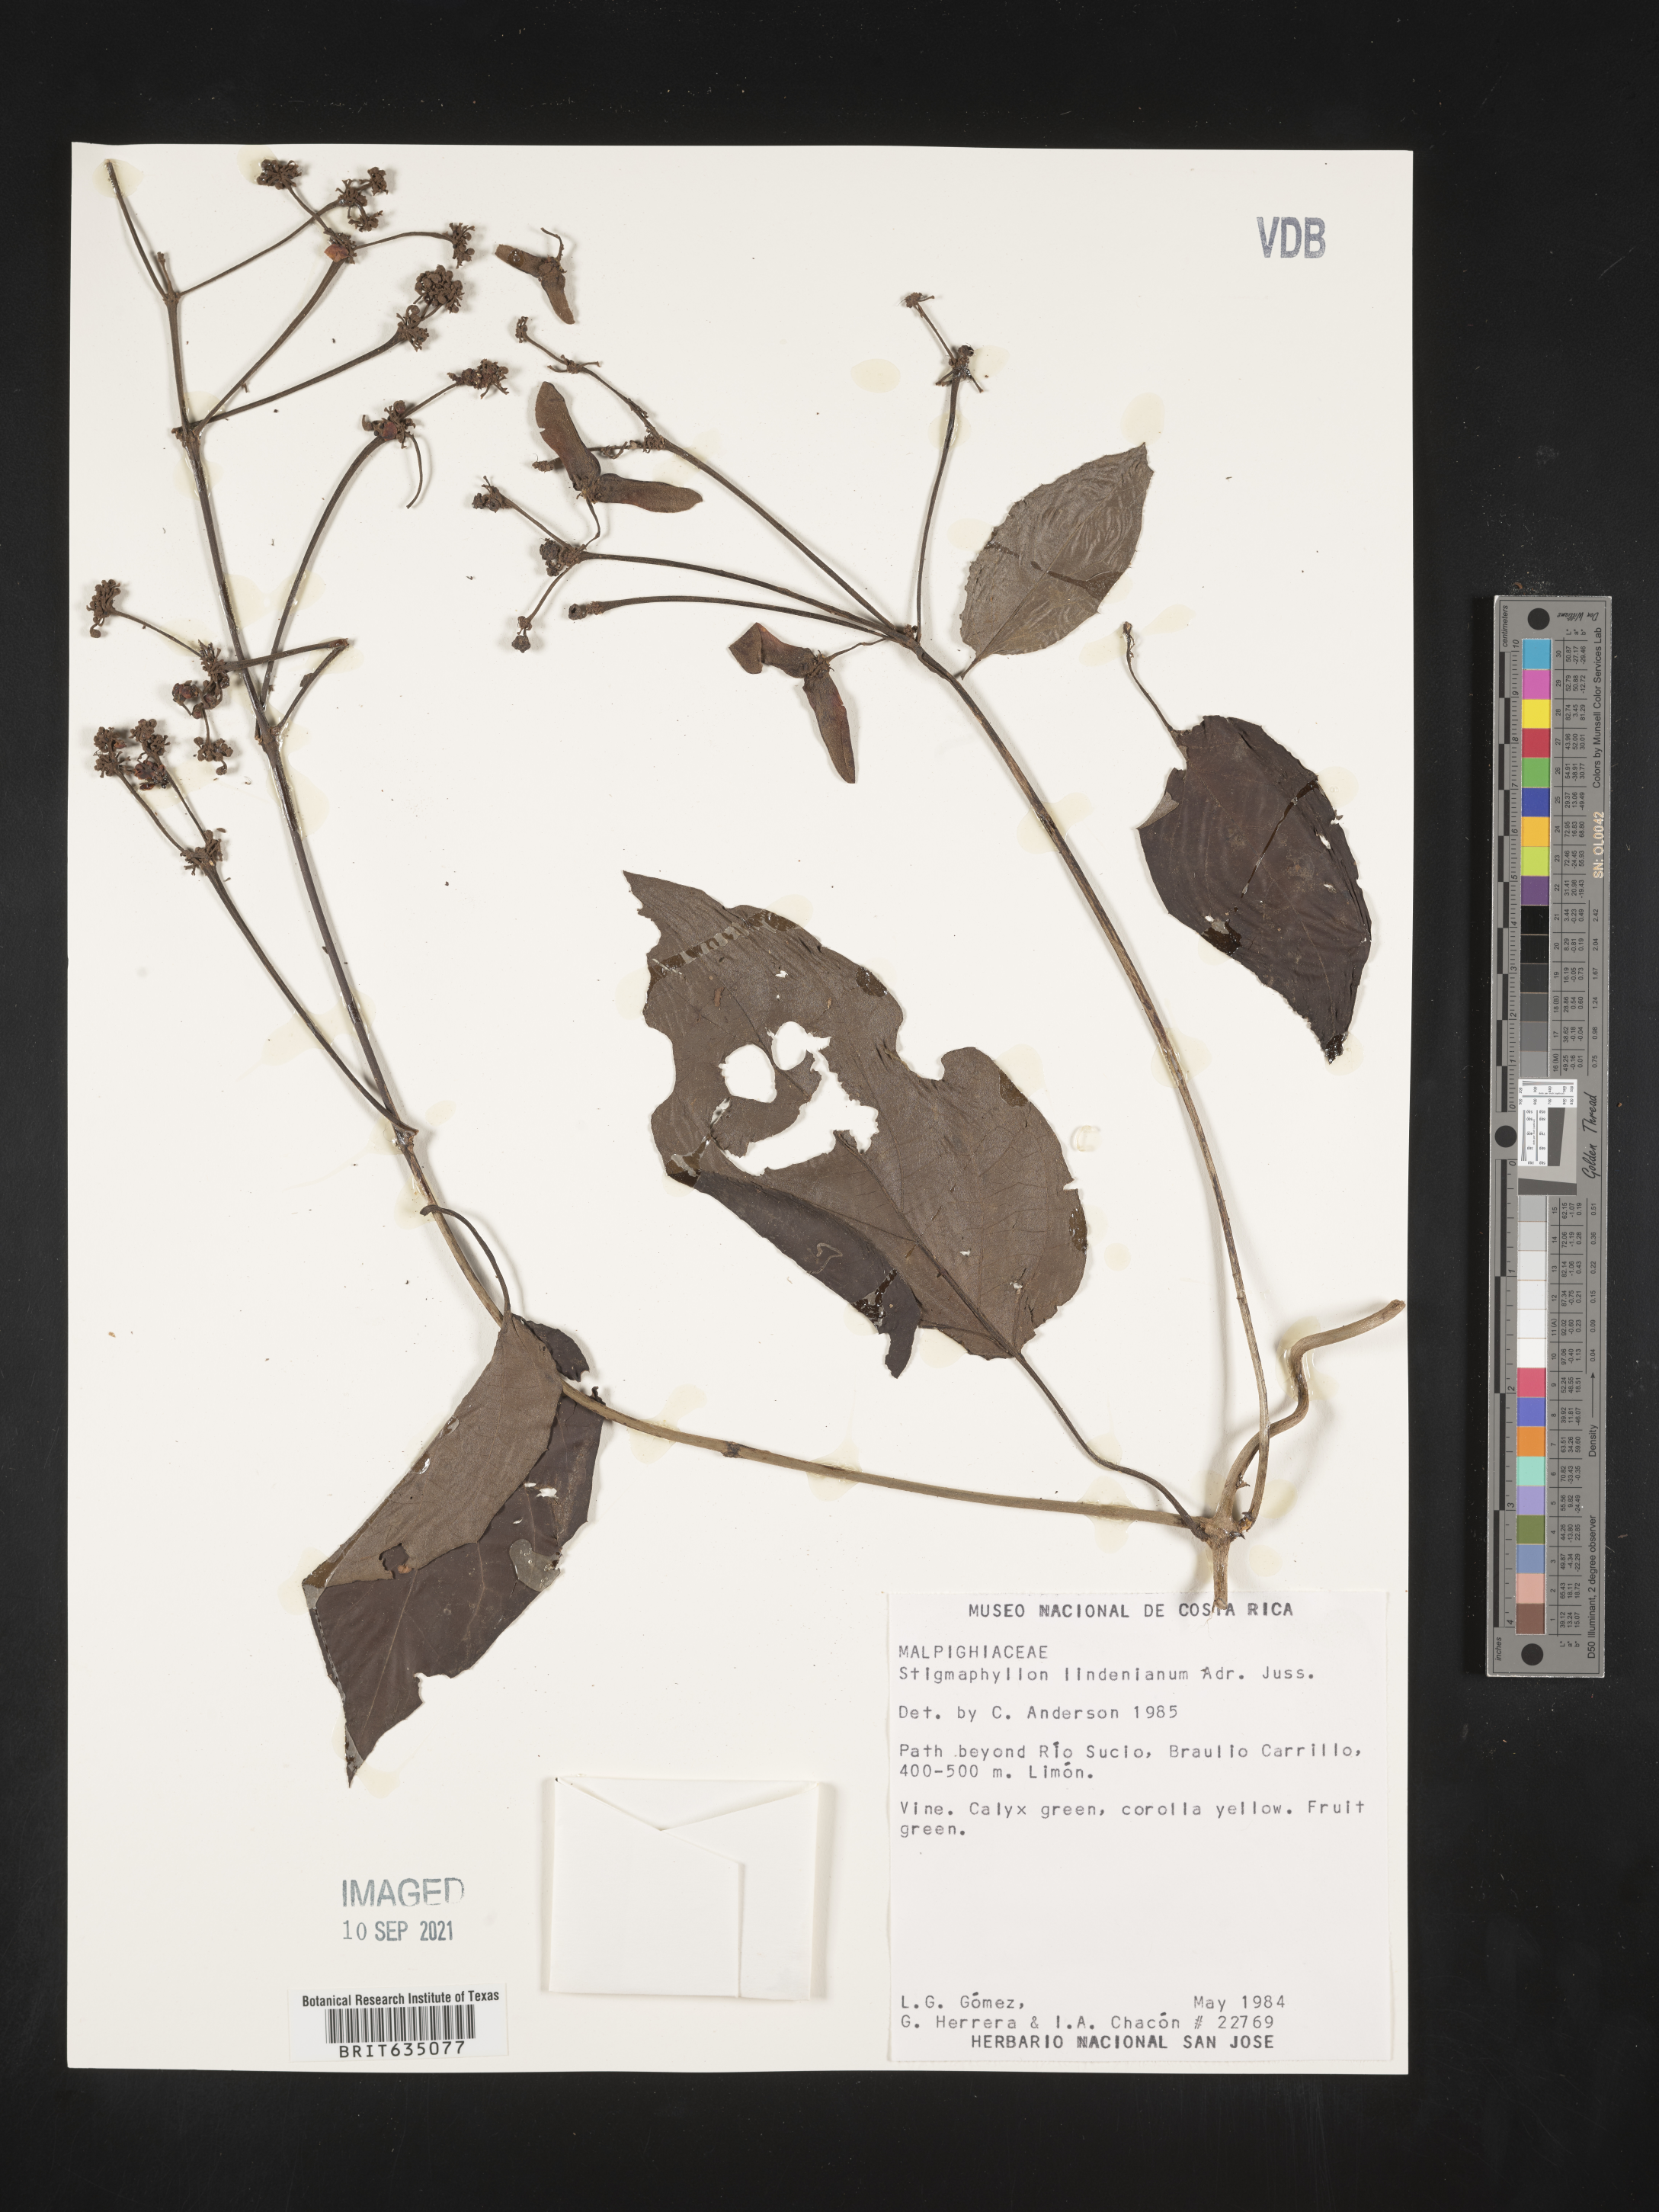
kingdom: Plantae
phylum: Tracheophyta
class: Magnoliopsida
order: Malpighiales
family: Malpighiaceae
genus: Stigmaphyllon
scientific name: Stigmaphyllon
